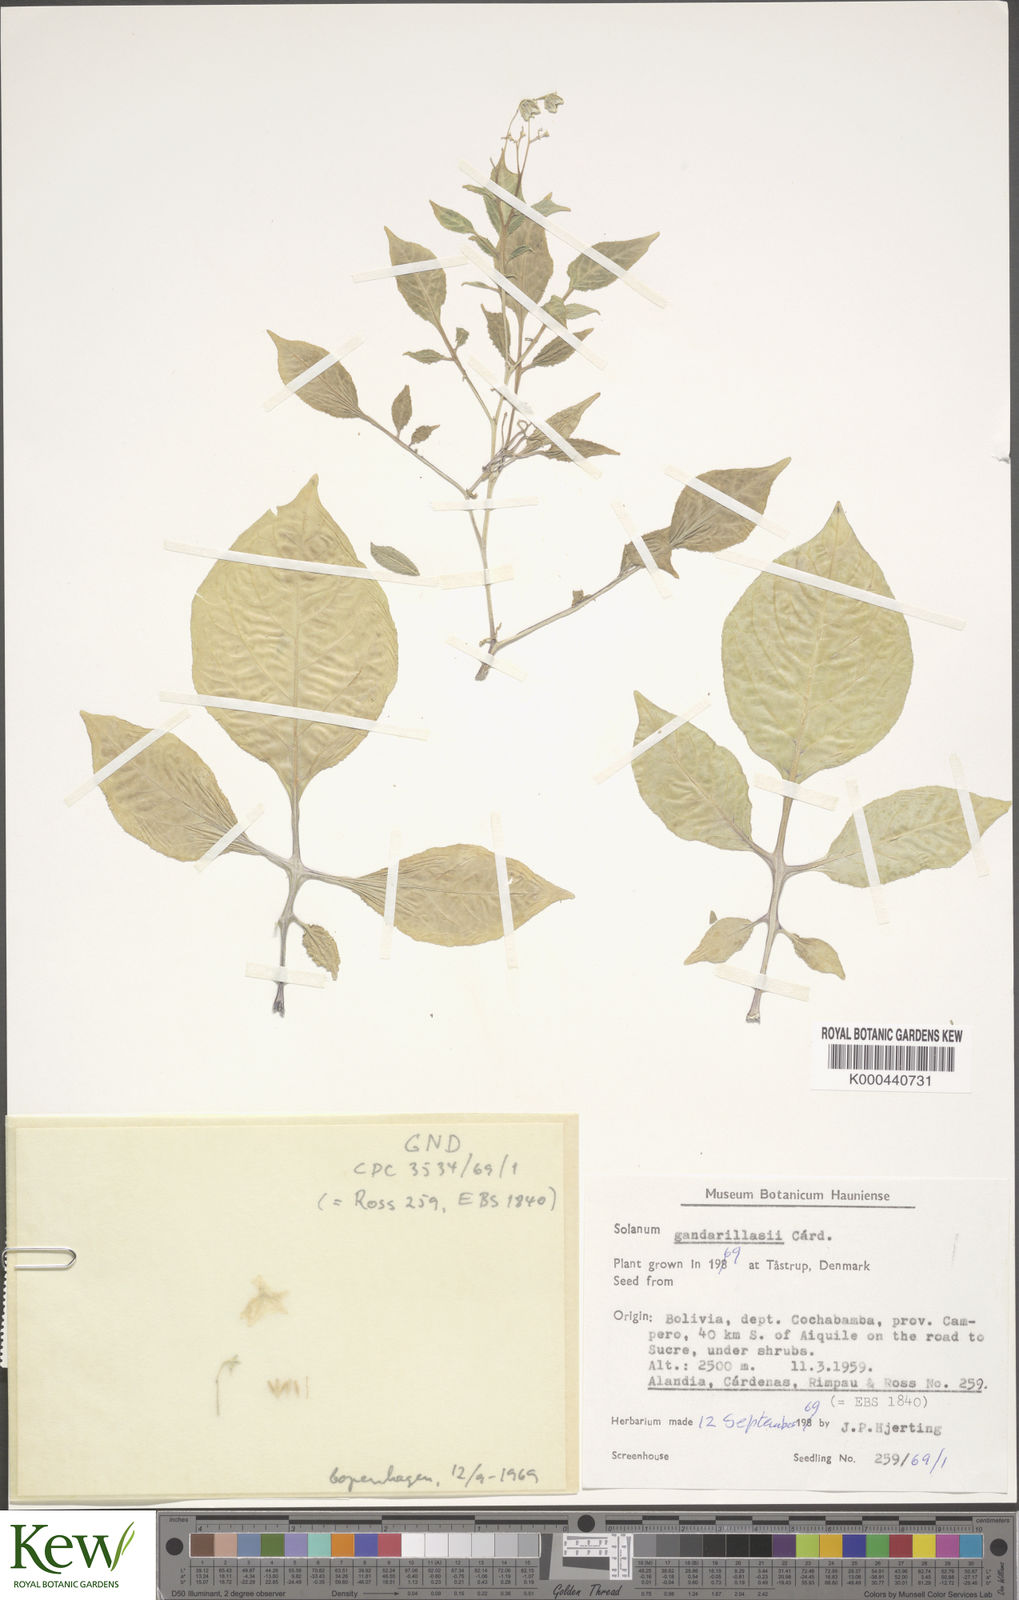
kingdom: Plantae
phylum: Tracheophyta
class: Magnoliopsida
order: Solanales
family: Solanaceae
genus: Solanum
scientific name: Solanum
